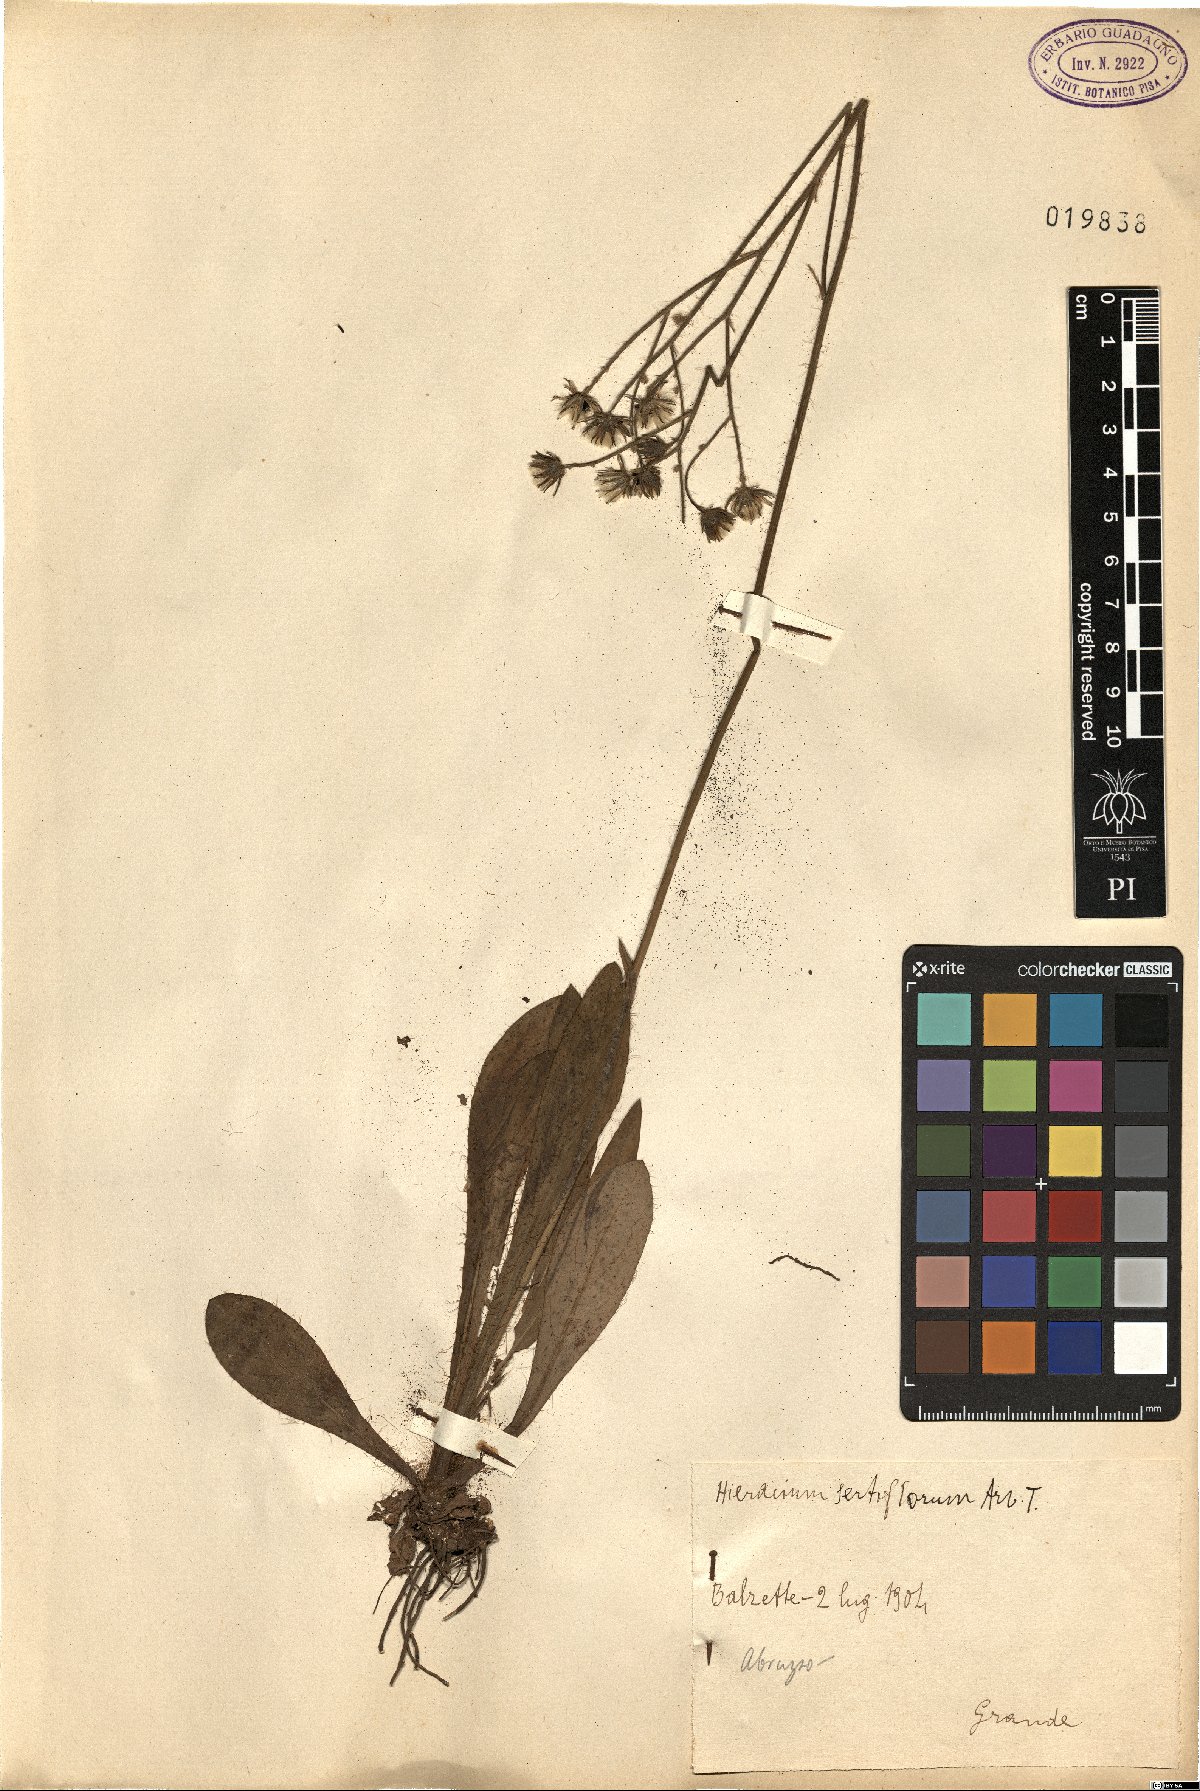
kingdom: Plantae
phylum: Tracheophyta
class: Magnoliopsida
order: Asterales
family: Asteraceae
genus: Pilosella
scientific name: Pilosella anchusoides
